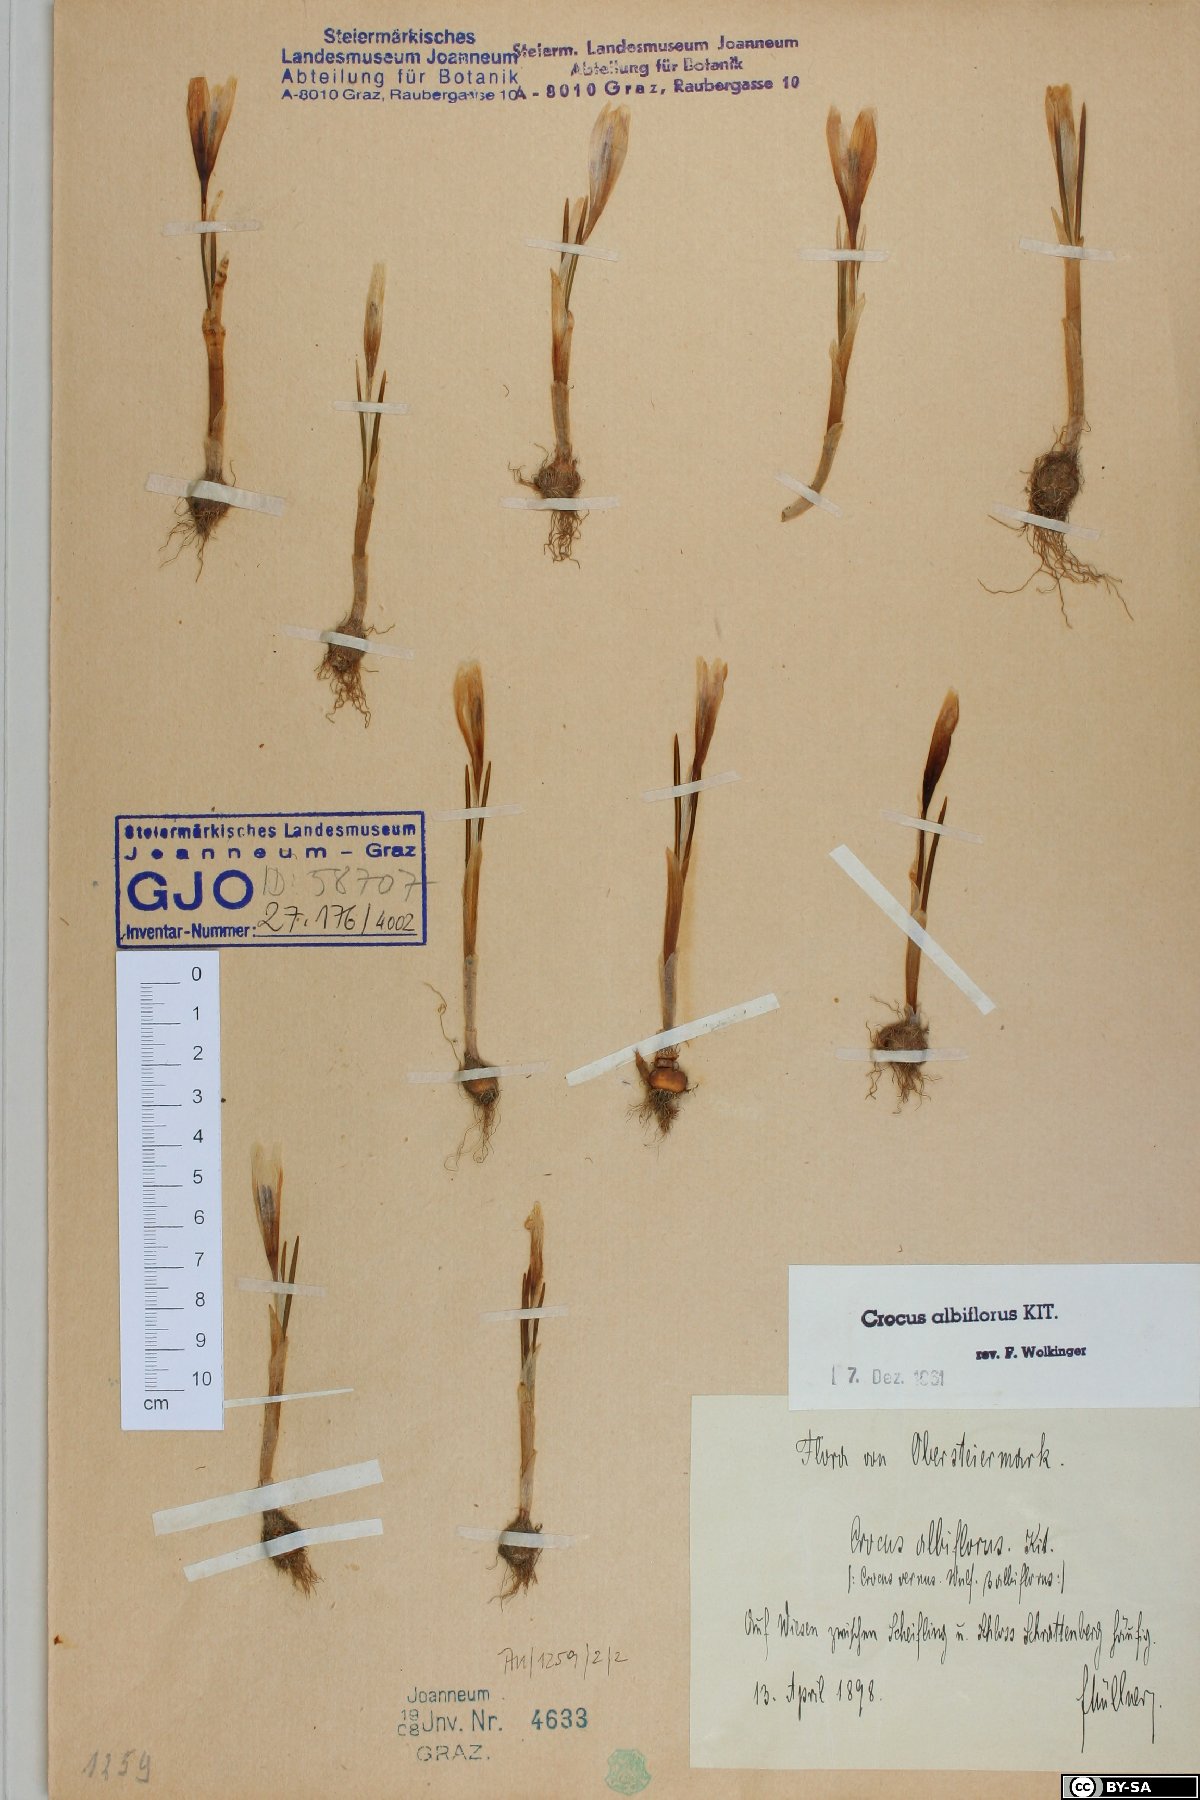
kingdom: Plantae
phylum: Tracheophyta
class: Liliopsida
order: Asparagales
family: Iridaceae
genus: Crocus
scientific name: Crocus vernus
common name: Spring crocus
